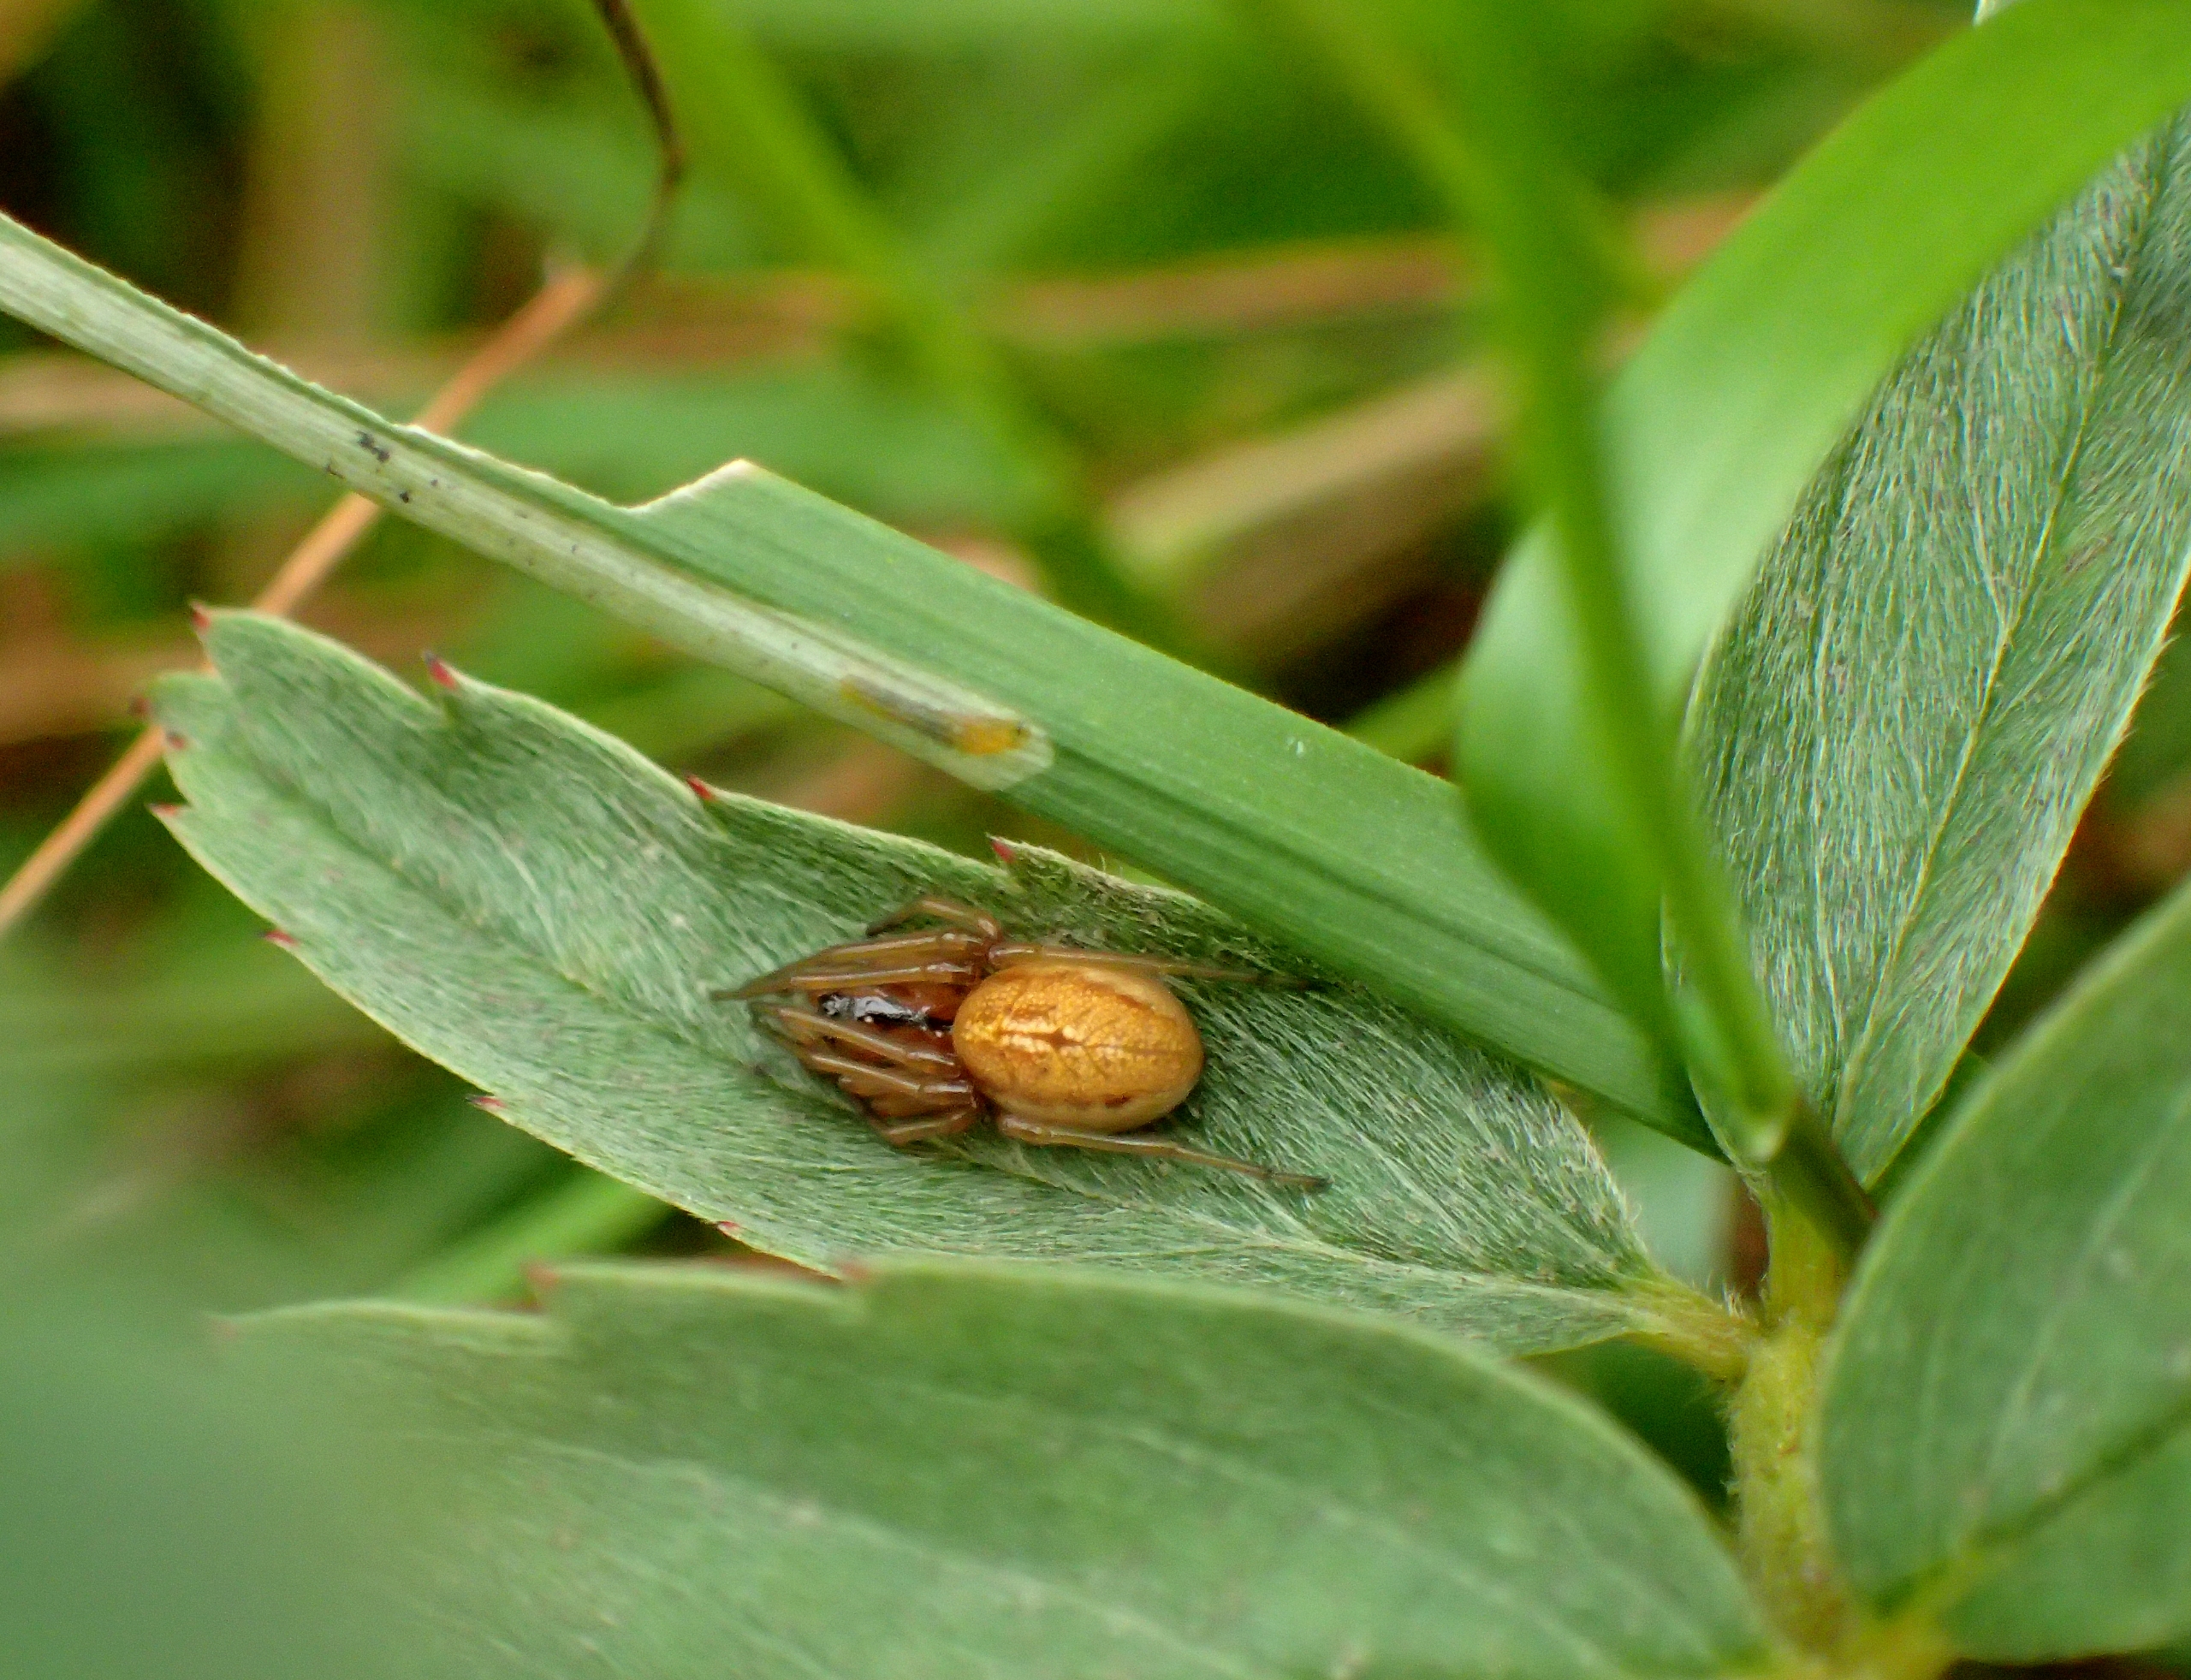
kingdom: Animalia
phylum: Arthropoda
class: Arachnida
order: Araneae
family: Tetragnathidae
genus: Pachygnatha
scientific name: Pachygnatha clercki
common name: Søtykkæbe
